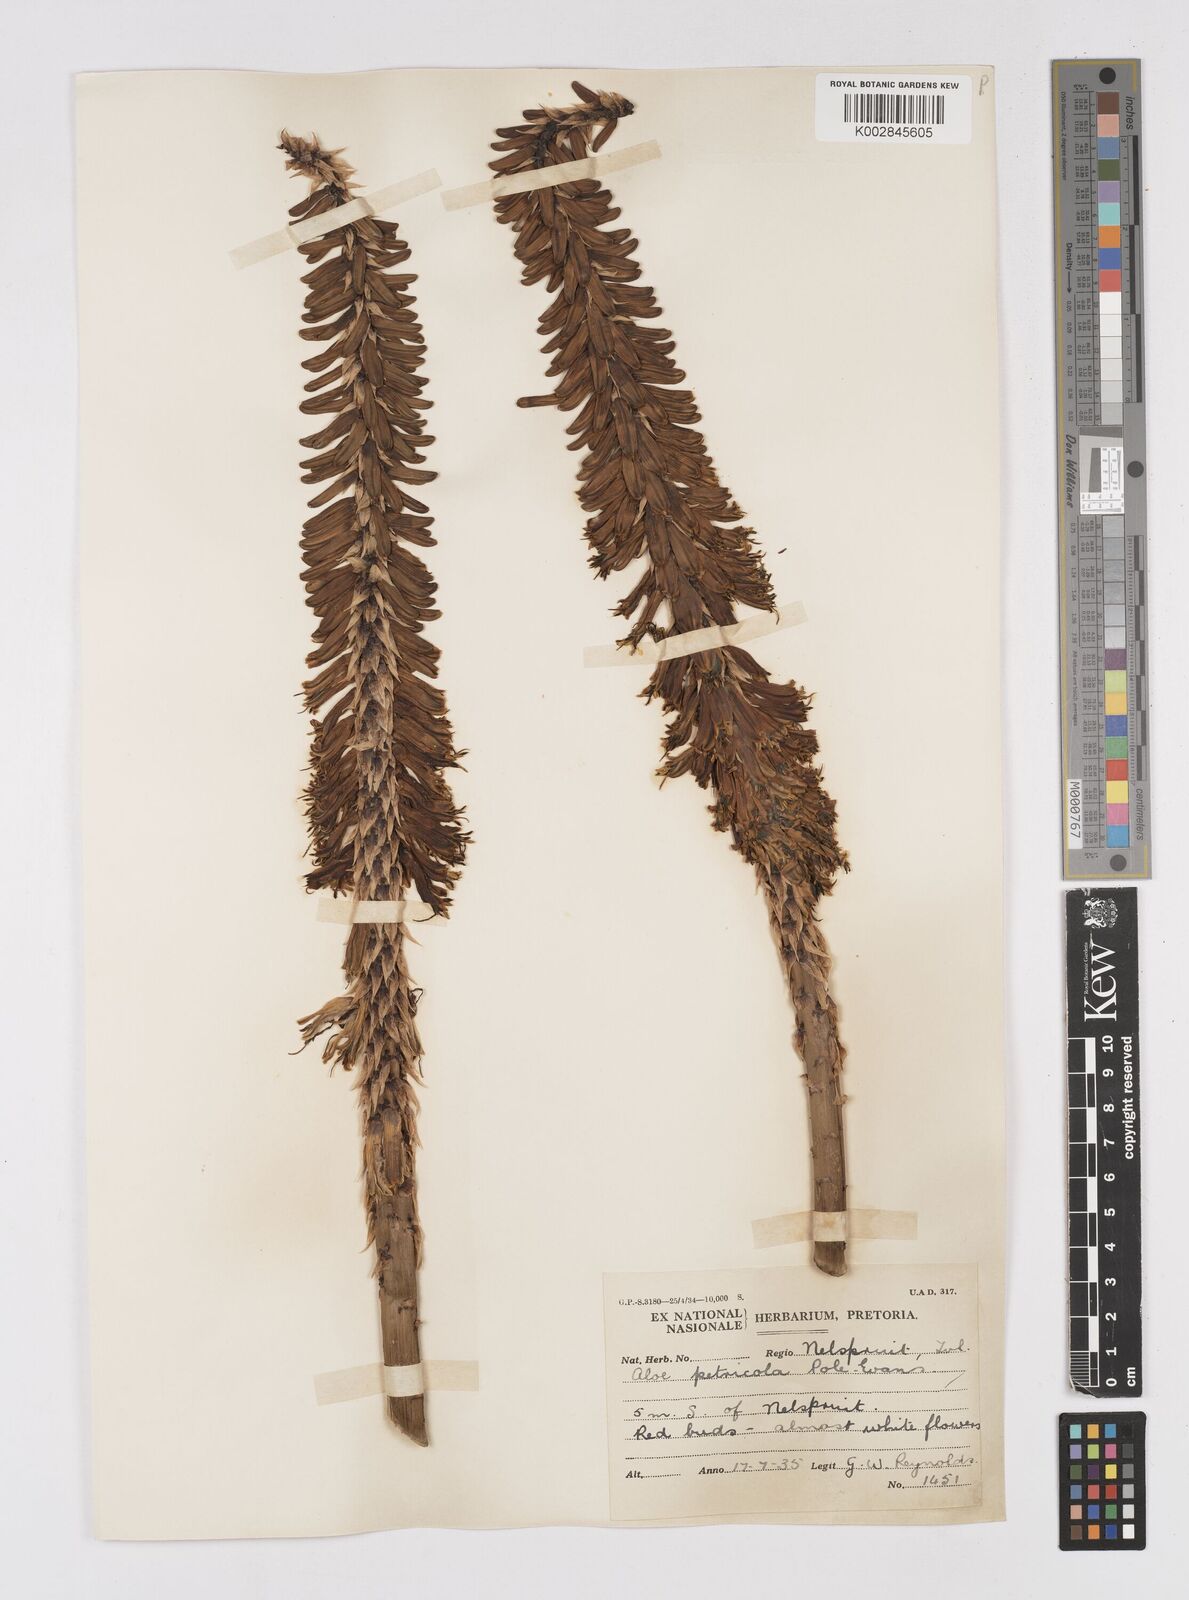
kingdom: Plantae
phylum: Tracheophyta
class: Liliopsida
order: Asparagales
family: Asphodelaceae
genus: Aloe
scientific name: Aloe
